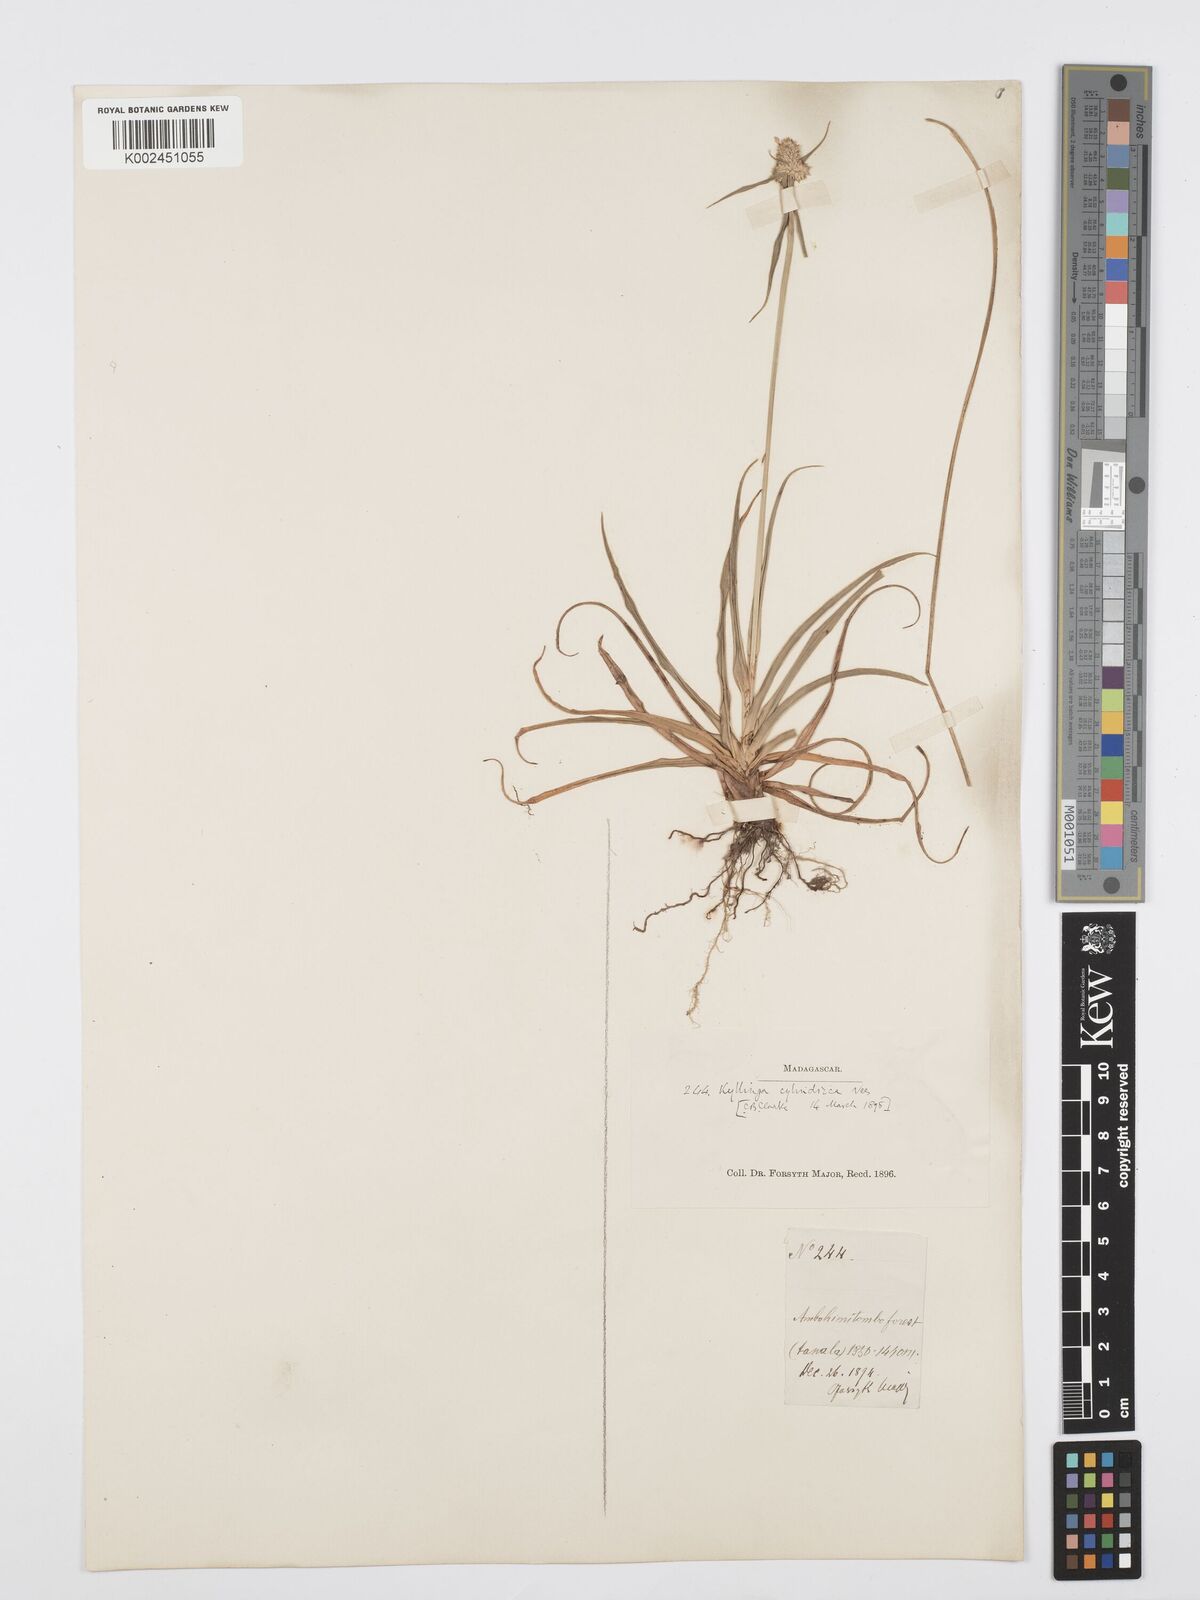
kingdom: Plantae
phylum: Tracheophyta
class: Liliopsida
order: Poales
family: Cyperaceae
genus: Cyperus
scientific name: Cyperus
